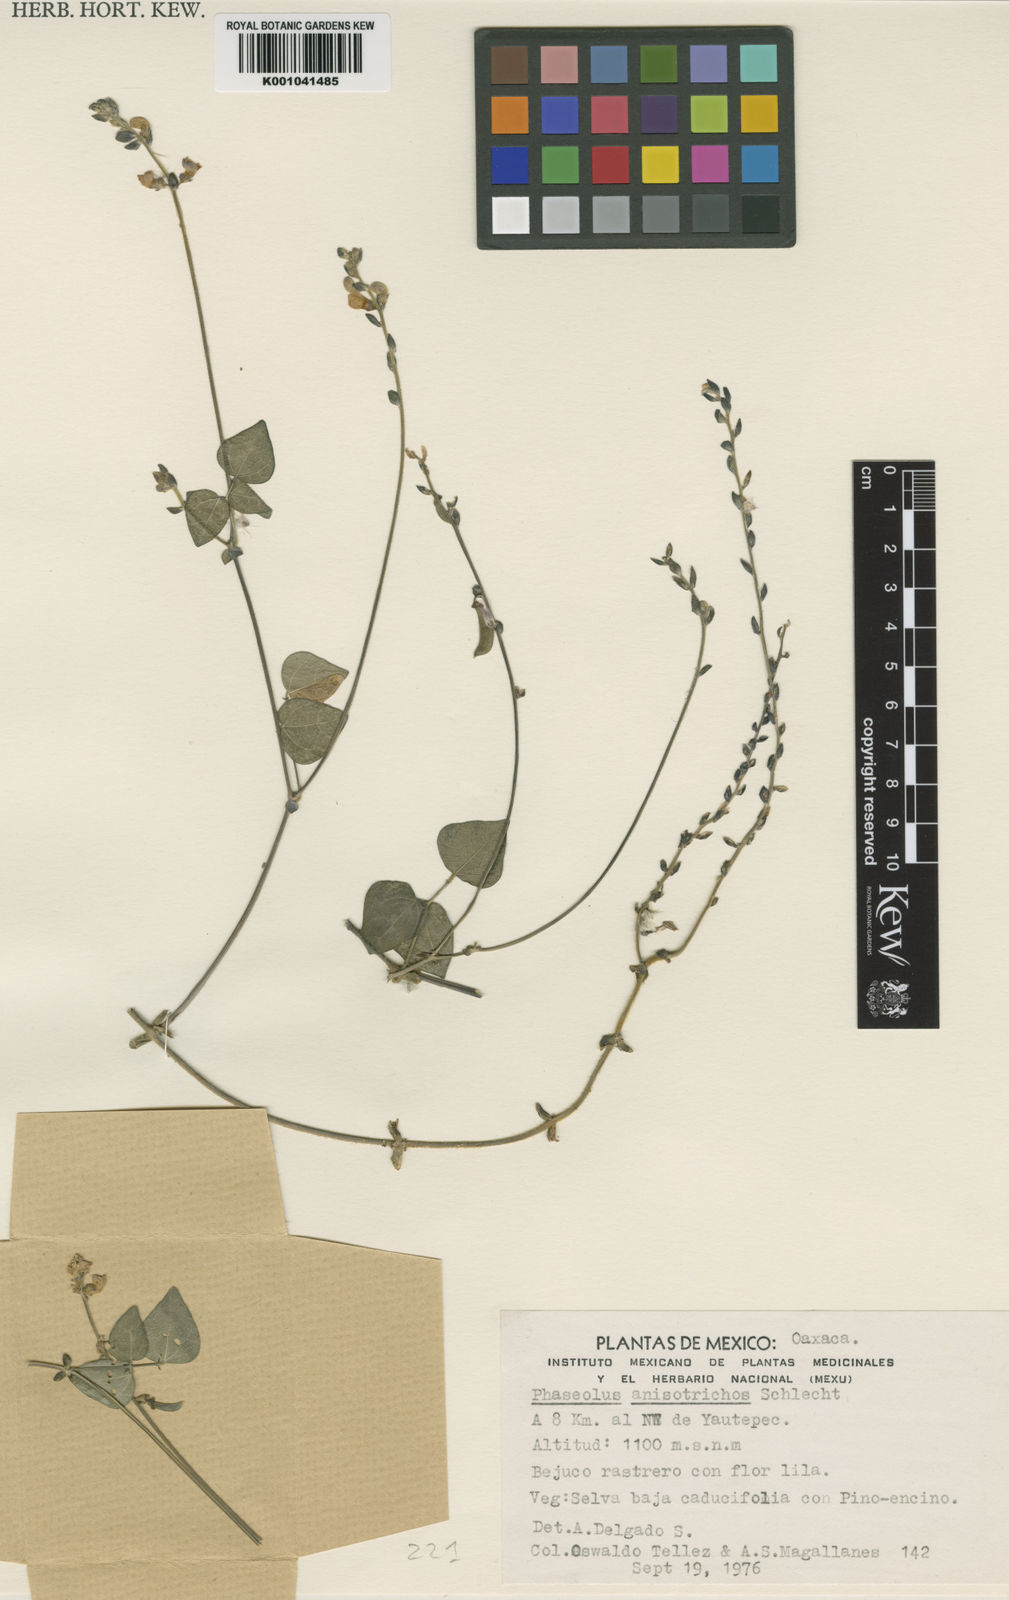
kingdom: Plantae
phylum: Tracheophyta
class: Magnoliopsida
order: Fabales
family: Fabaceae
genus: Phaseolus
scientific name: Phaseolus
